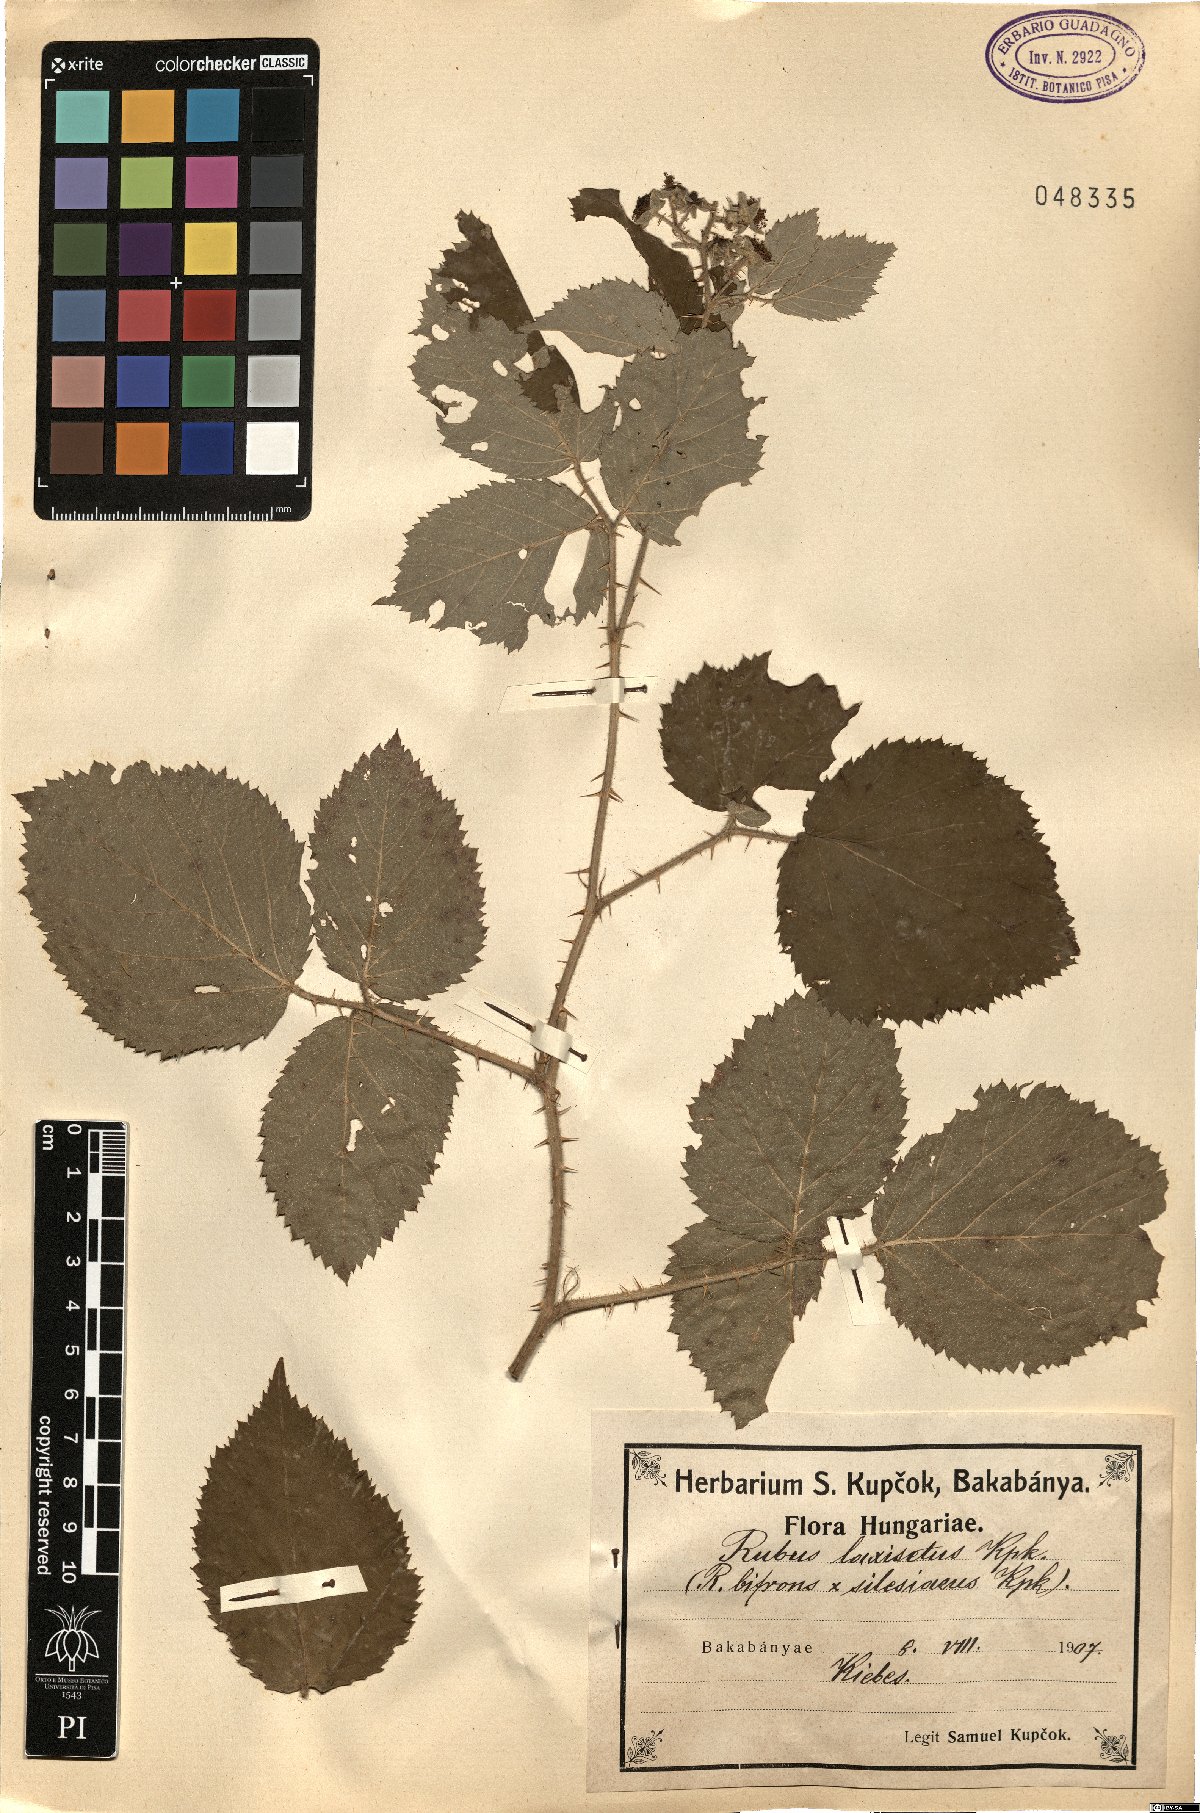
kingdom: Plantae
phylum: Tracheophyta
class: Magnoliopsida
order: Rosales
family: Rosaceae
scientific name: Rosaceae
